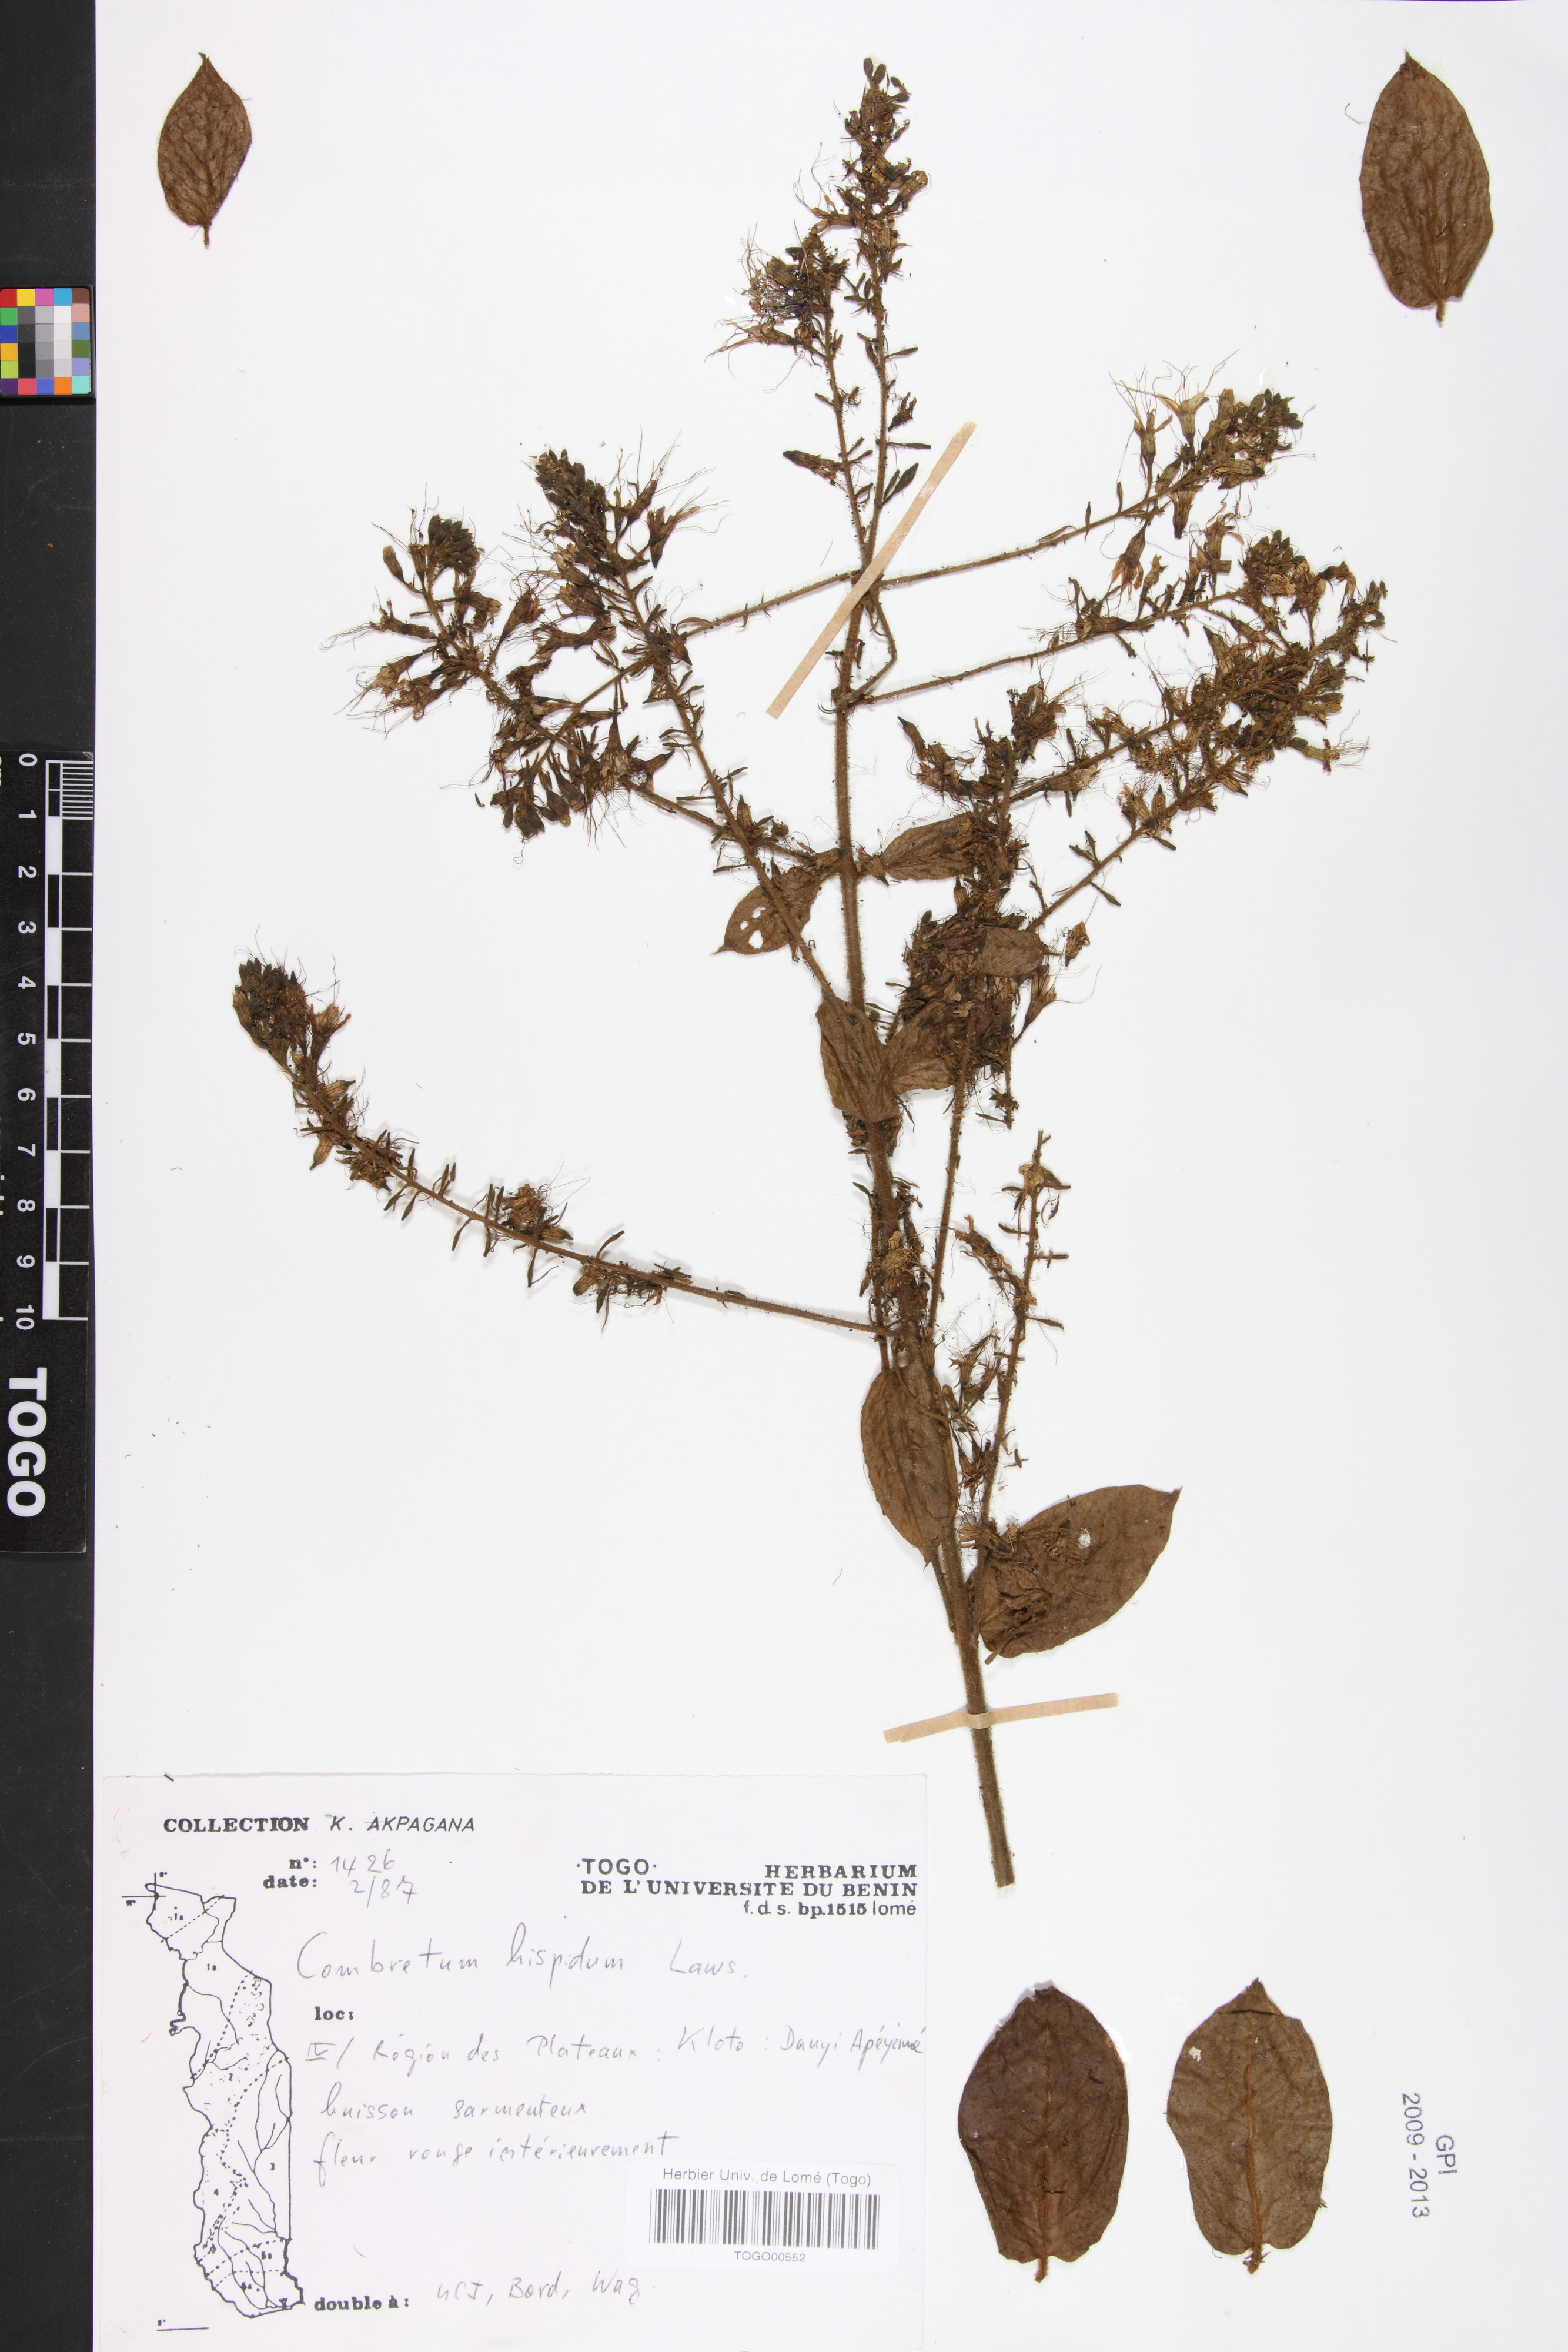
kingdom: Plantae
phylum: Tracheophyta
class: Magnoliopsida
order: Myrtales
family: Combretaceae
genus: Combretum
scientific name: Combretum comosum
